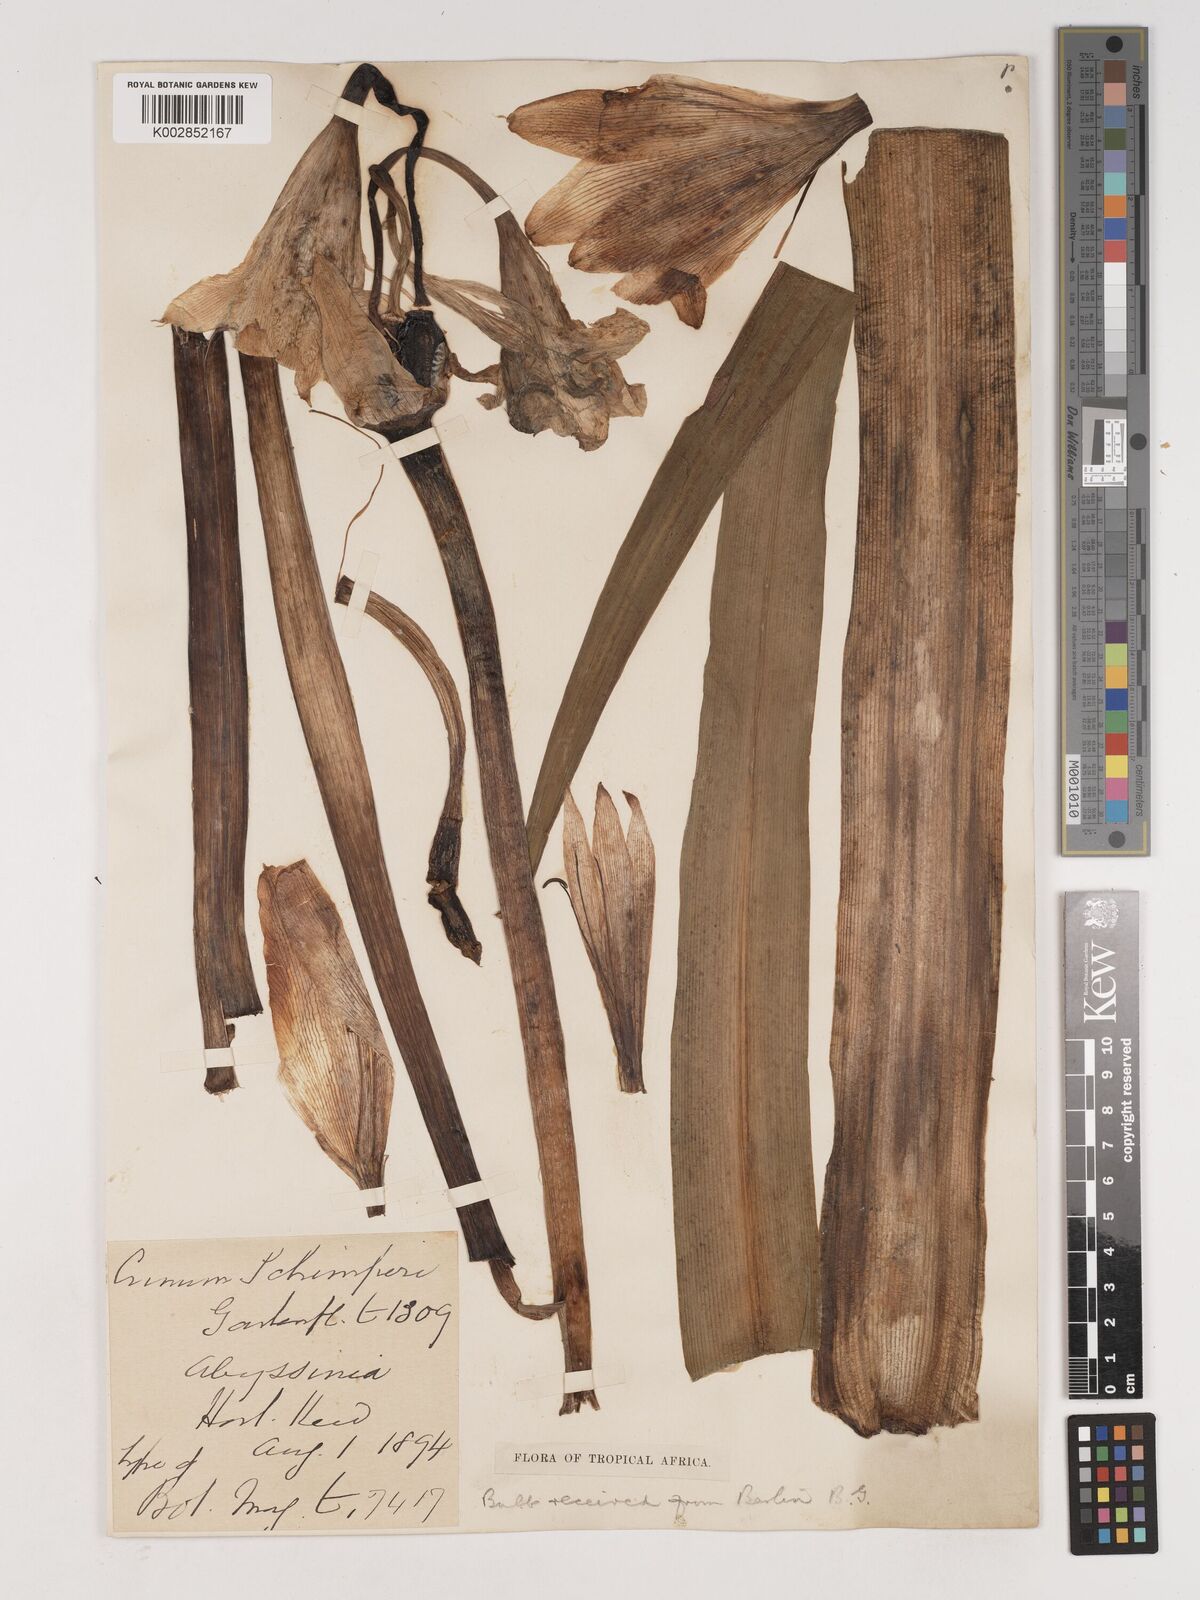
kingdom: Plantae
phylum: Tracheophyta
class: Liliopsida
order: Asparagales
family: Amaryllidaceae
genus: Crinum
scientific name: Crinum abyssinicum
